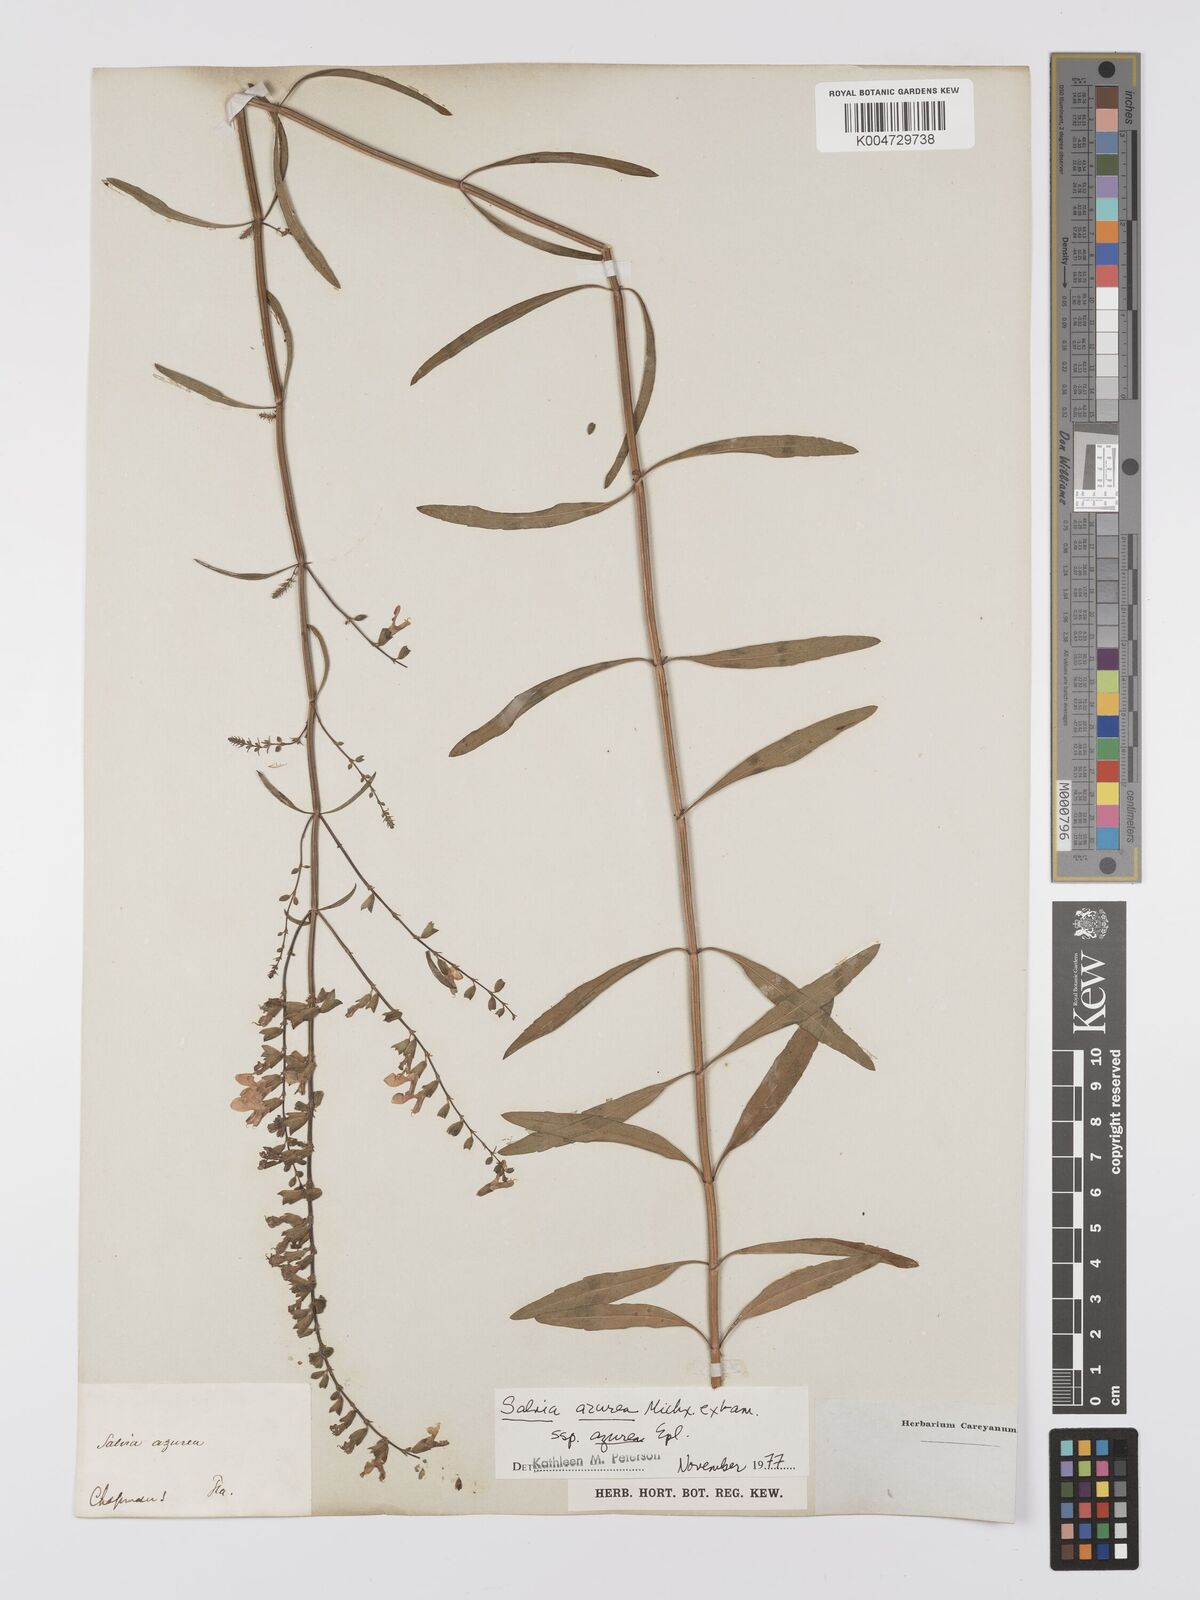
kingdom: Plantae
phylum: Tracheophyta
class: Magnoliopsida
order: Lamiales
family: Lamiaceae
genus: Salvia
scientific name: Salvia azurea
